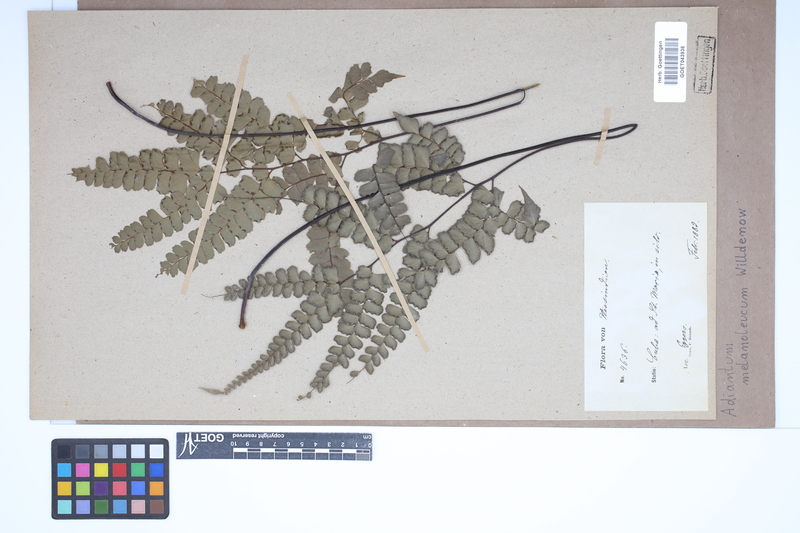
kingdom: Plantae
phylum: Tracheophyta
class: Polypodiopsida
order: Polypodiales
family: Pteridaceae
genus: Adiantum
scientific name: Adiantum melanoleucum
